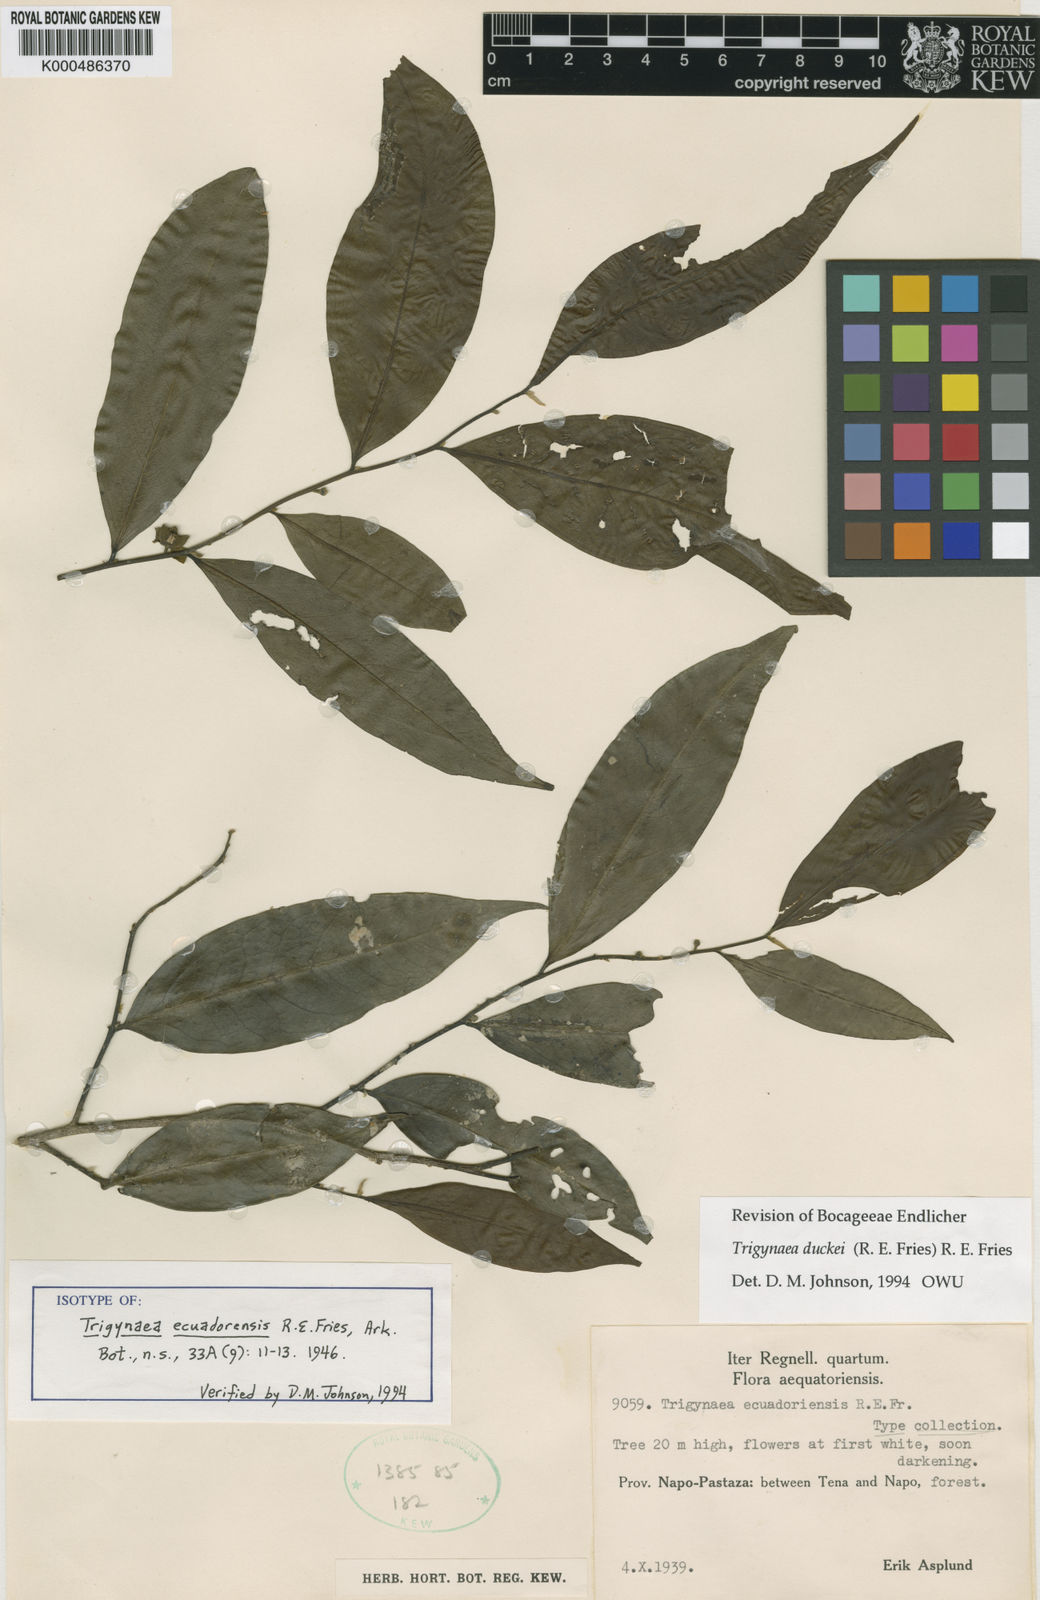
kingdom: Plantae
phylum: Tracheophyta
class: Magnoliopsida
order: Magnoliales
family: Annonaceae
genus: Trigynaea
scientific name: Trigynaea duckei
